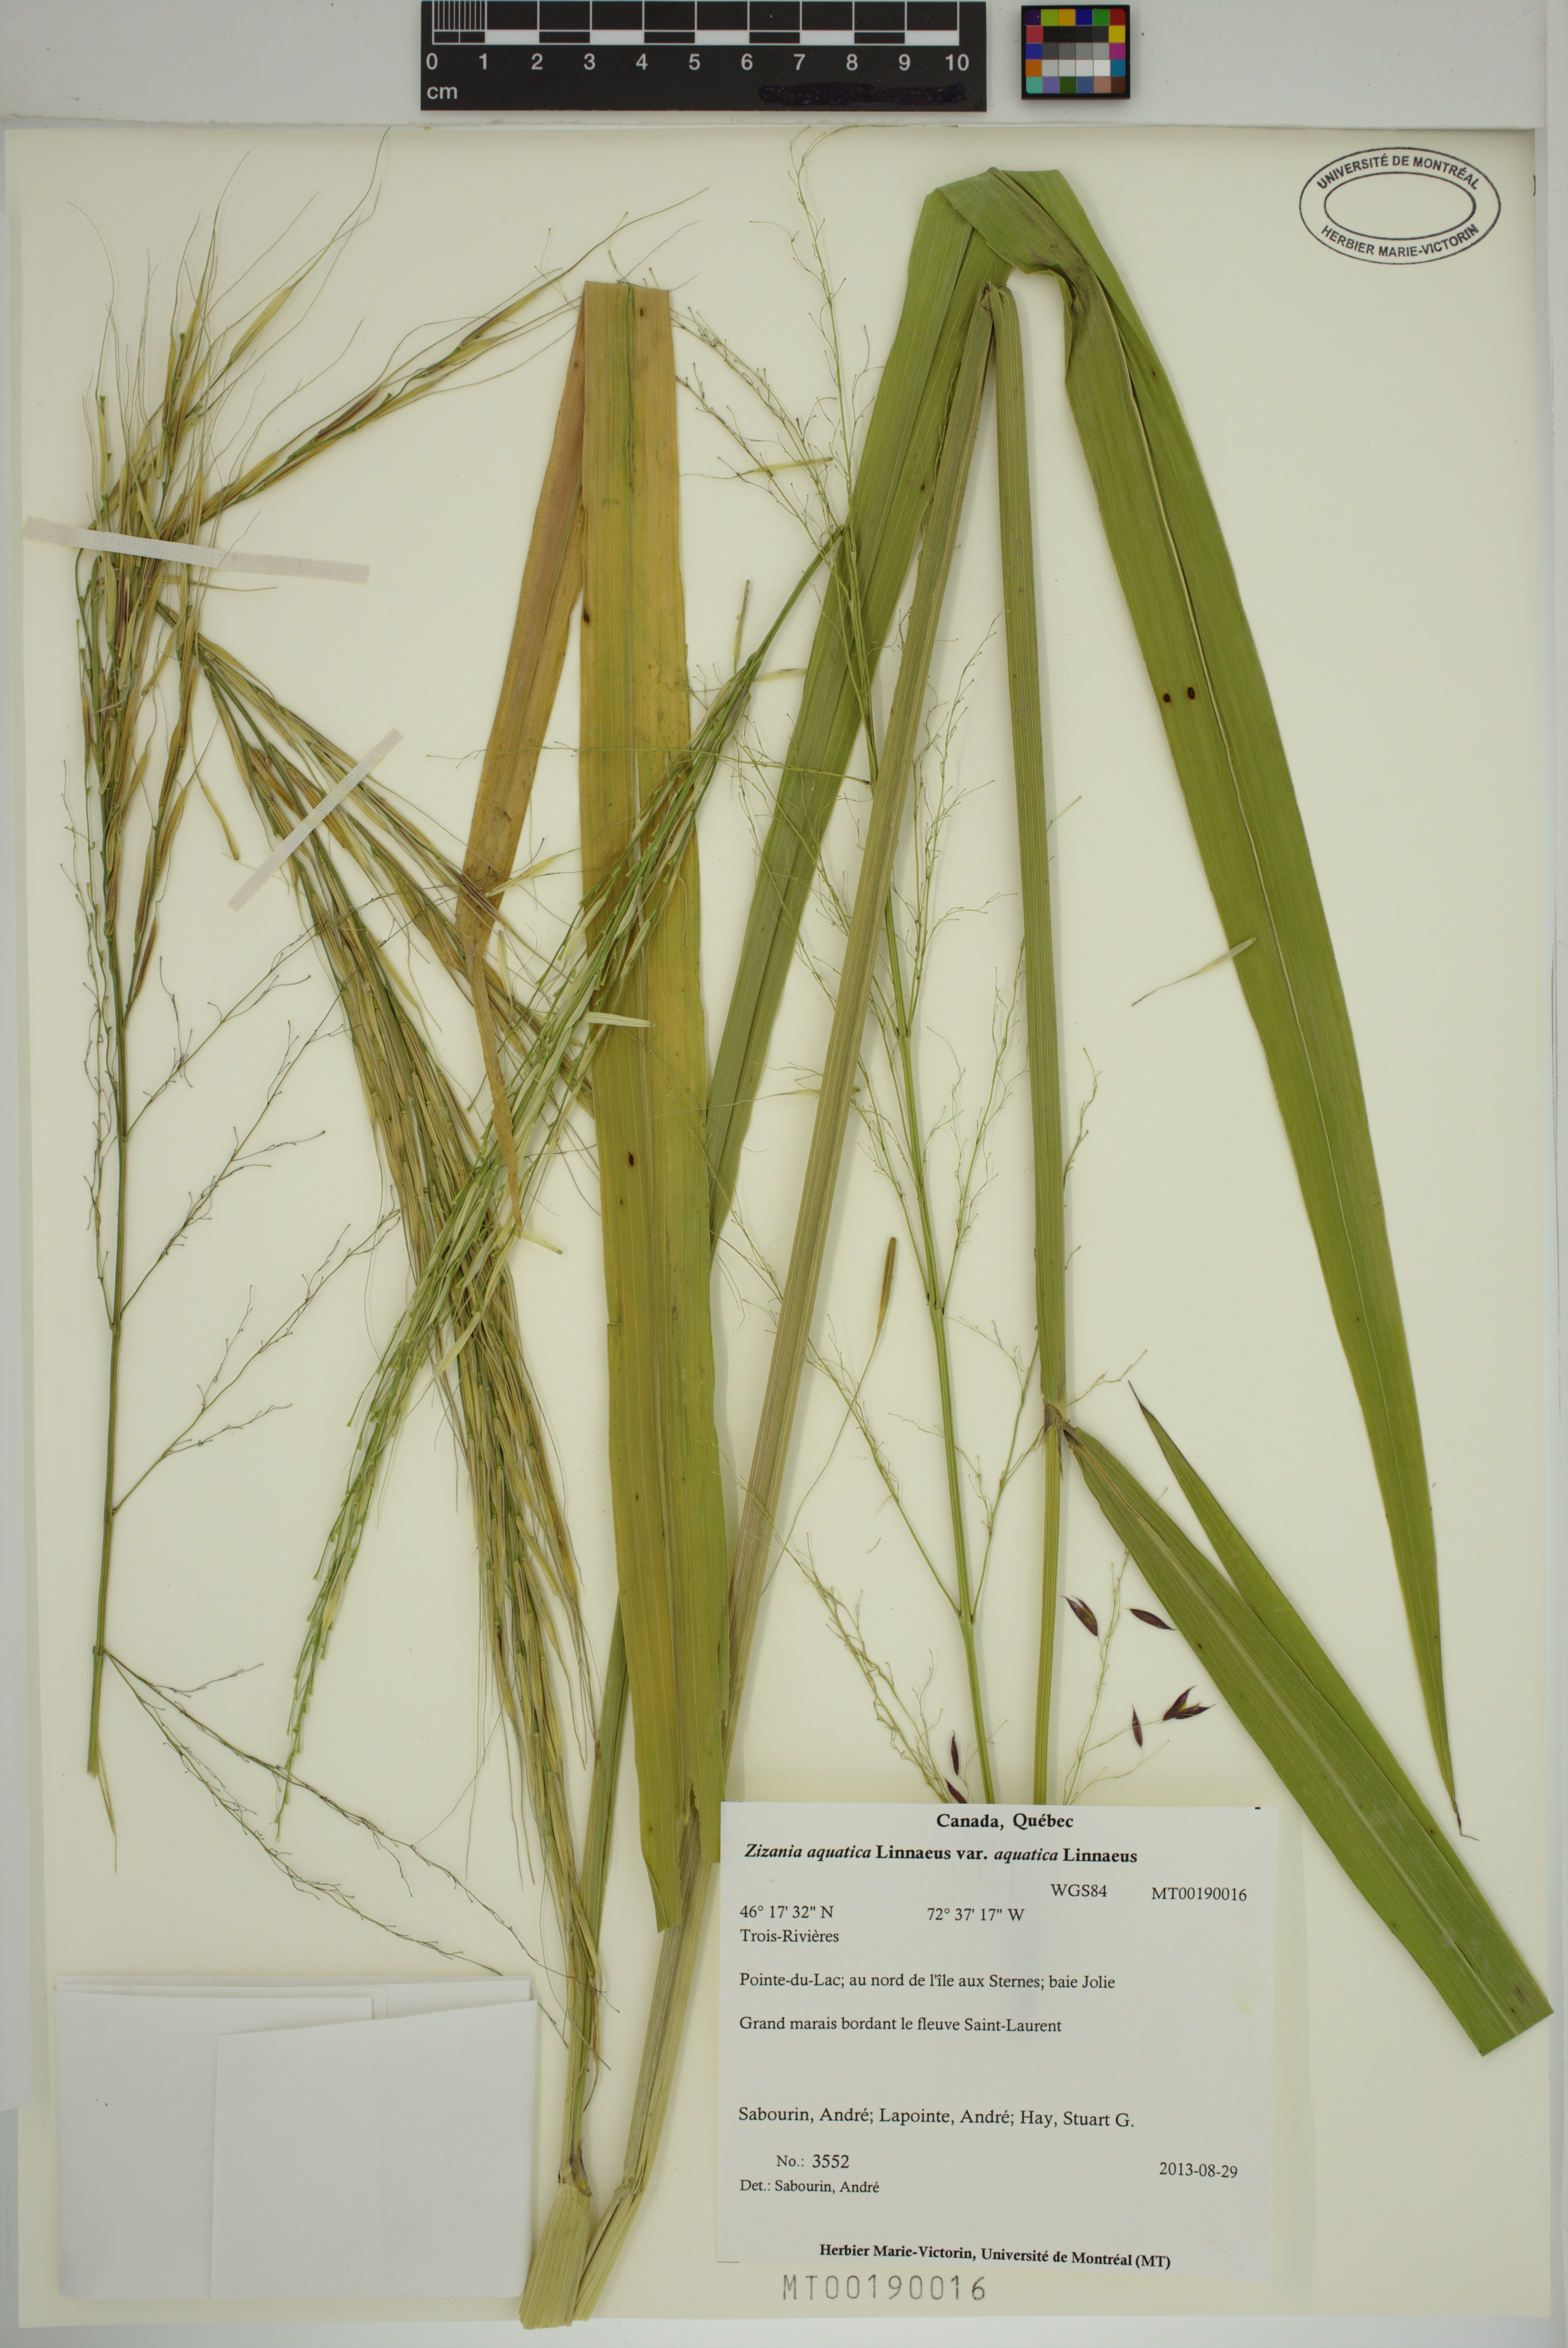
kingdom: Plantae
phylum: Tracheophyta
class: Liliopsida
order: Poales
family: Poaceae
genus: Zizania
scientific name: Zizania aquatica
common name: Annual wildrice
